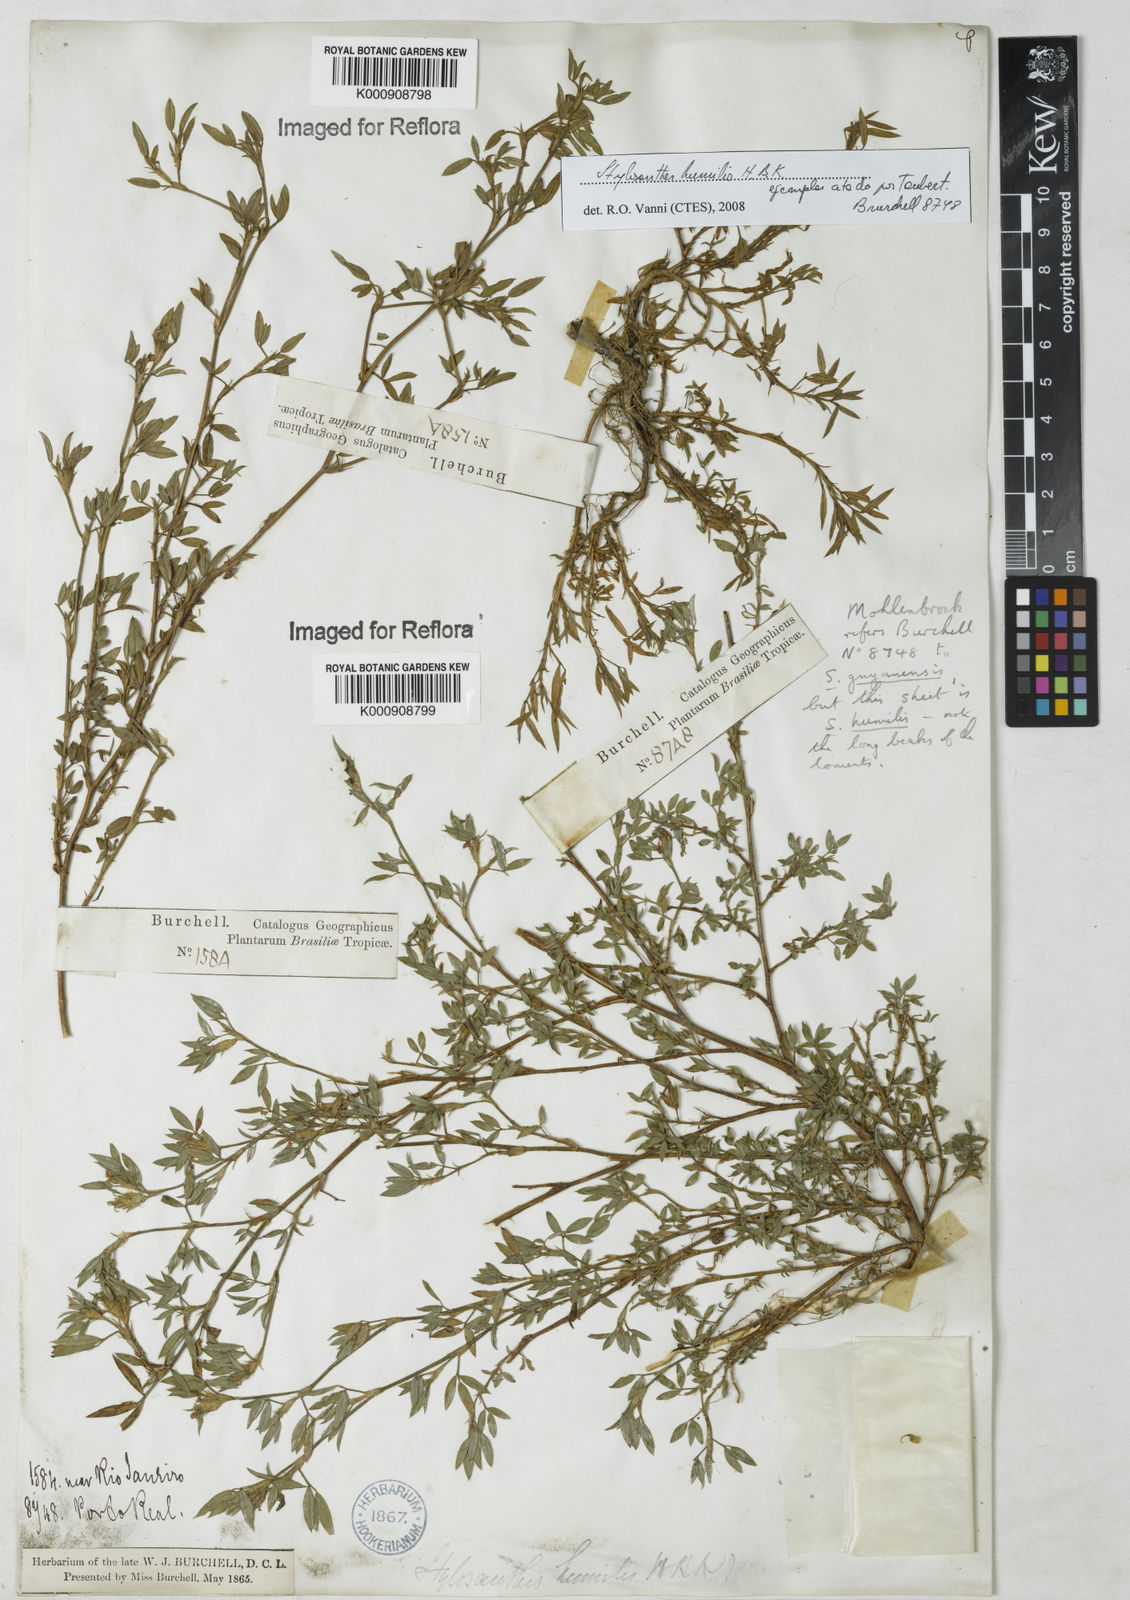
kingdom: Plantae
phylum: Tracheophyta
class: Magnoliopsida
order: Fabales
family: Fabaceae
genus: Stylosanthes
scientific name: Stylosanthes humilis
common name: Townsville stylo
